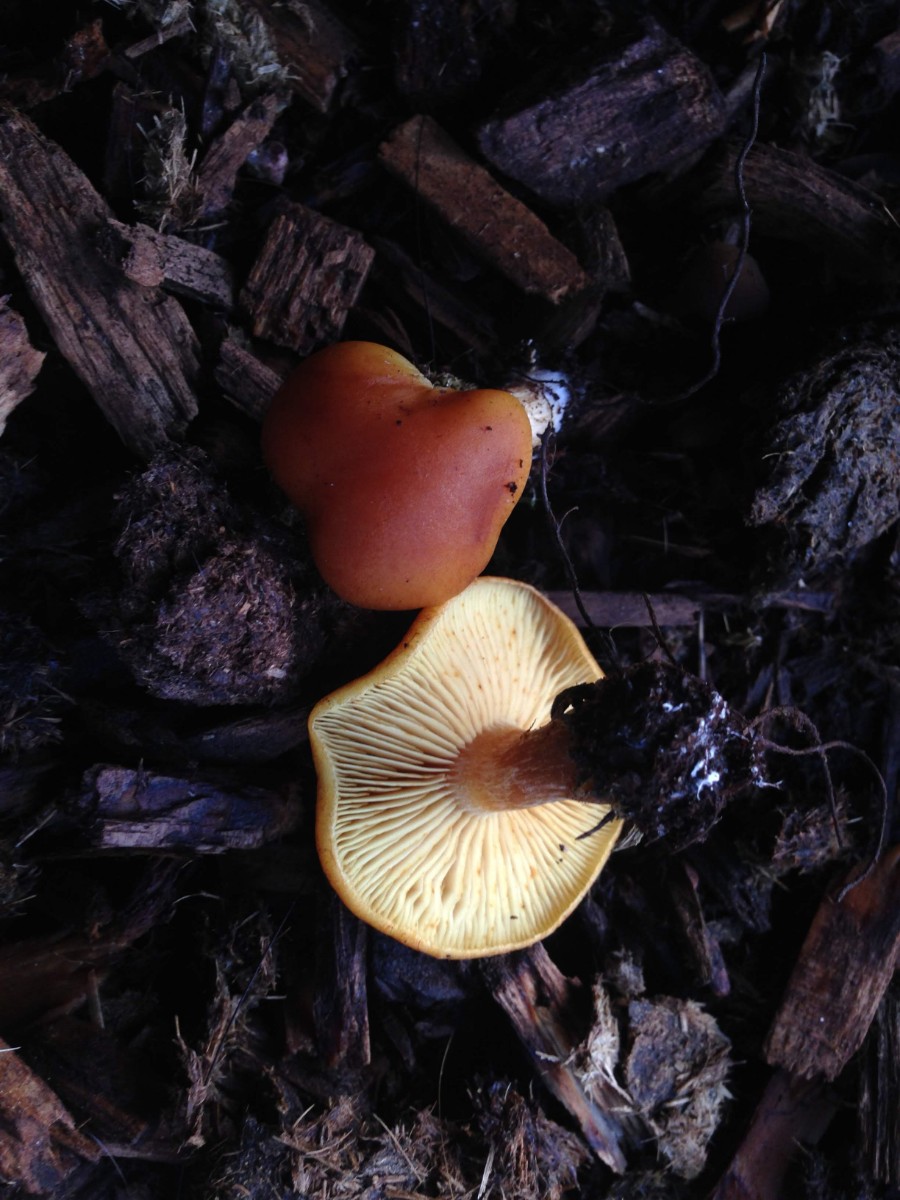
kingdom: Fungi
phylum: Basidiomycota
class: Agaricomycetes
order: Agaricales
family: Hymenogastraceae
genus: Gymnopilus
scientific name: Gymnopilus penetrans
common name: plettet flammehat
